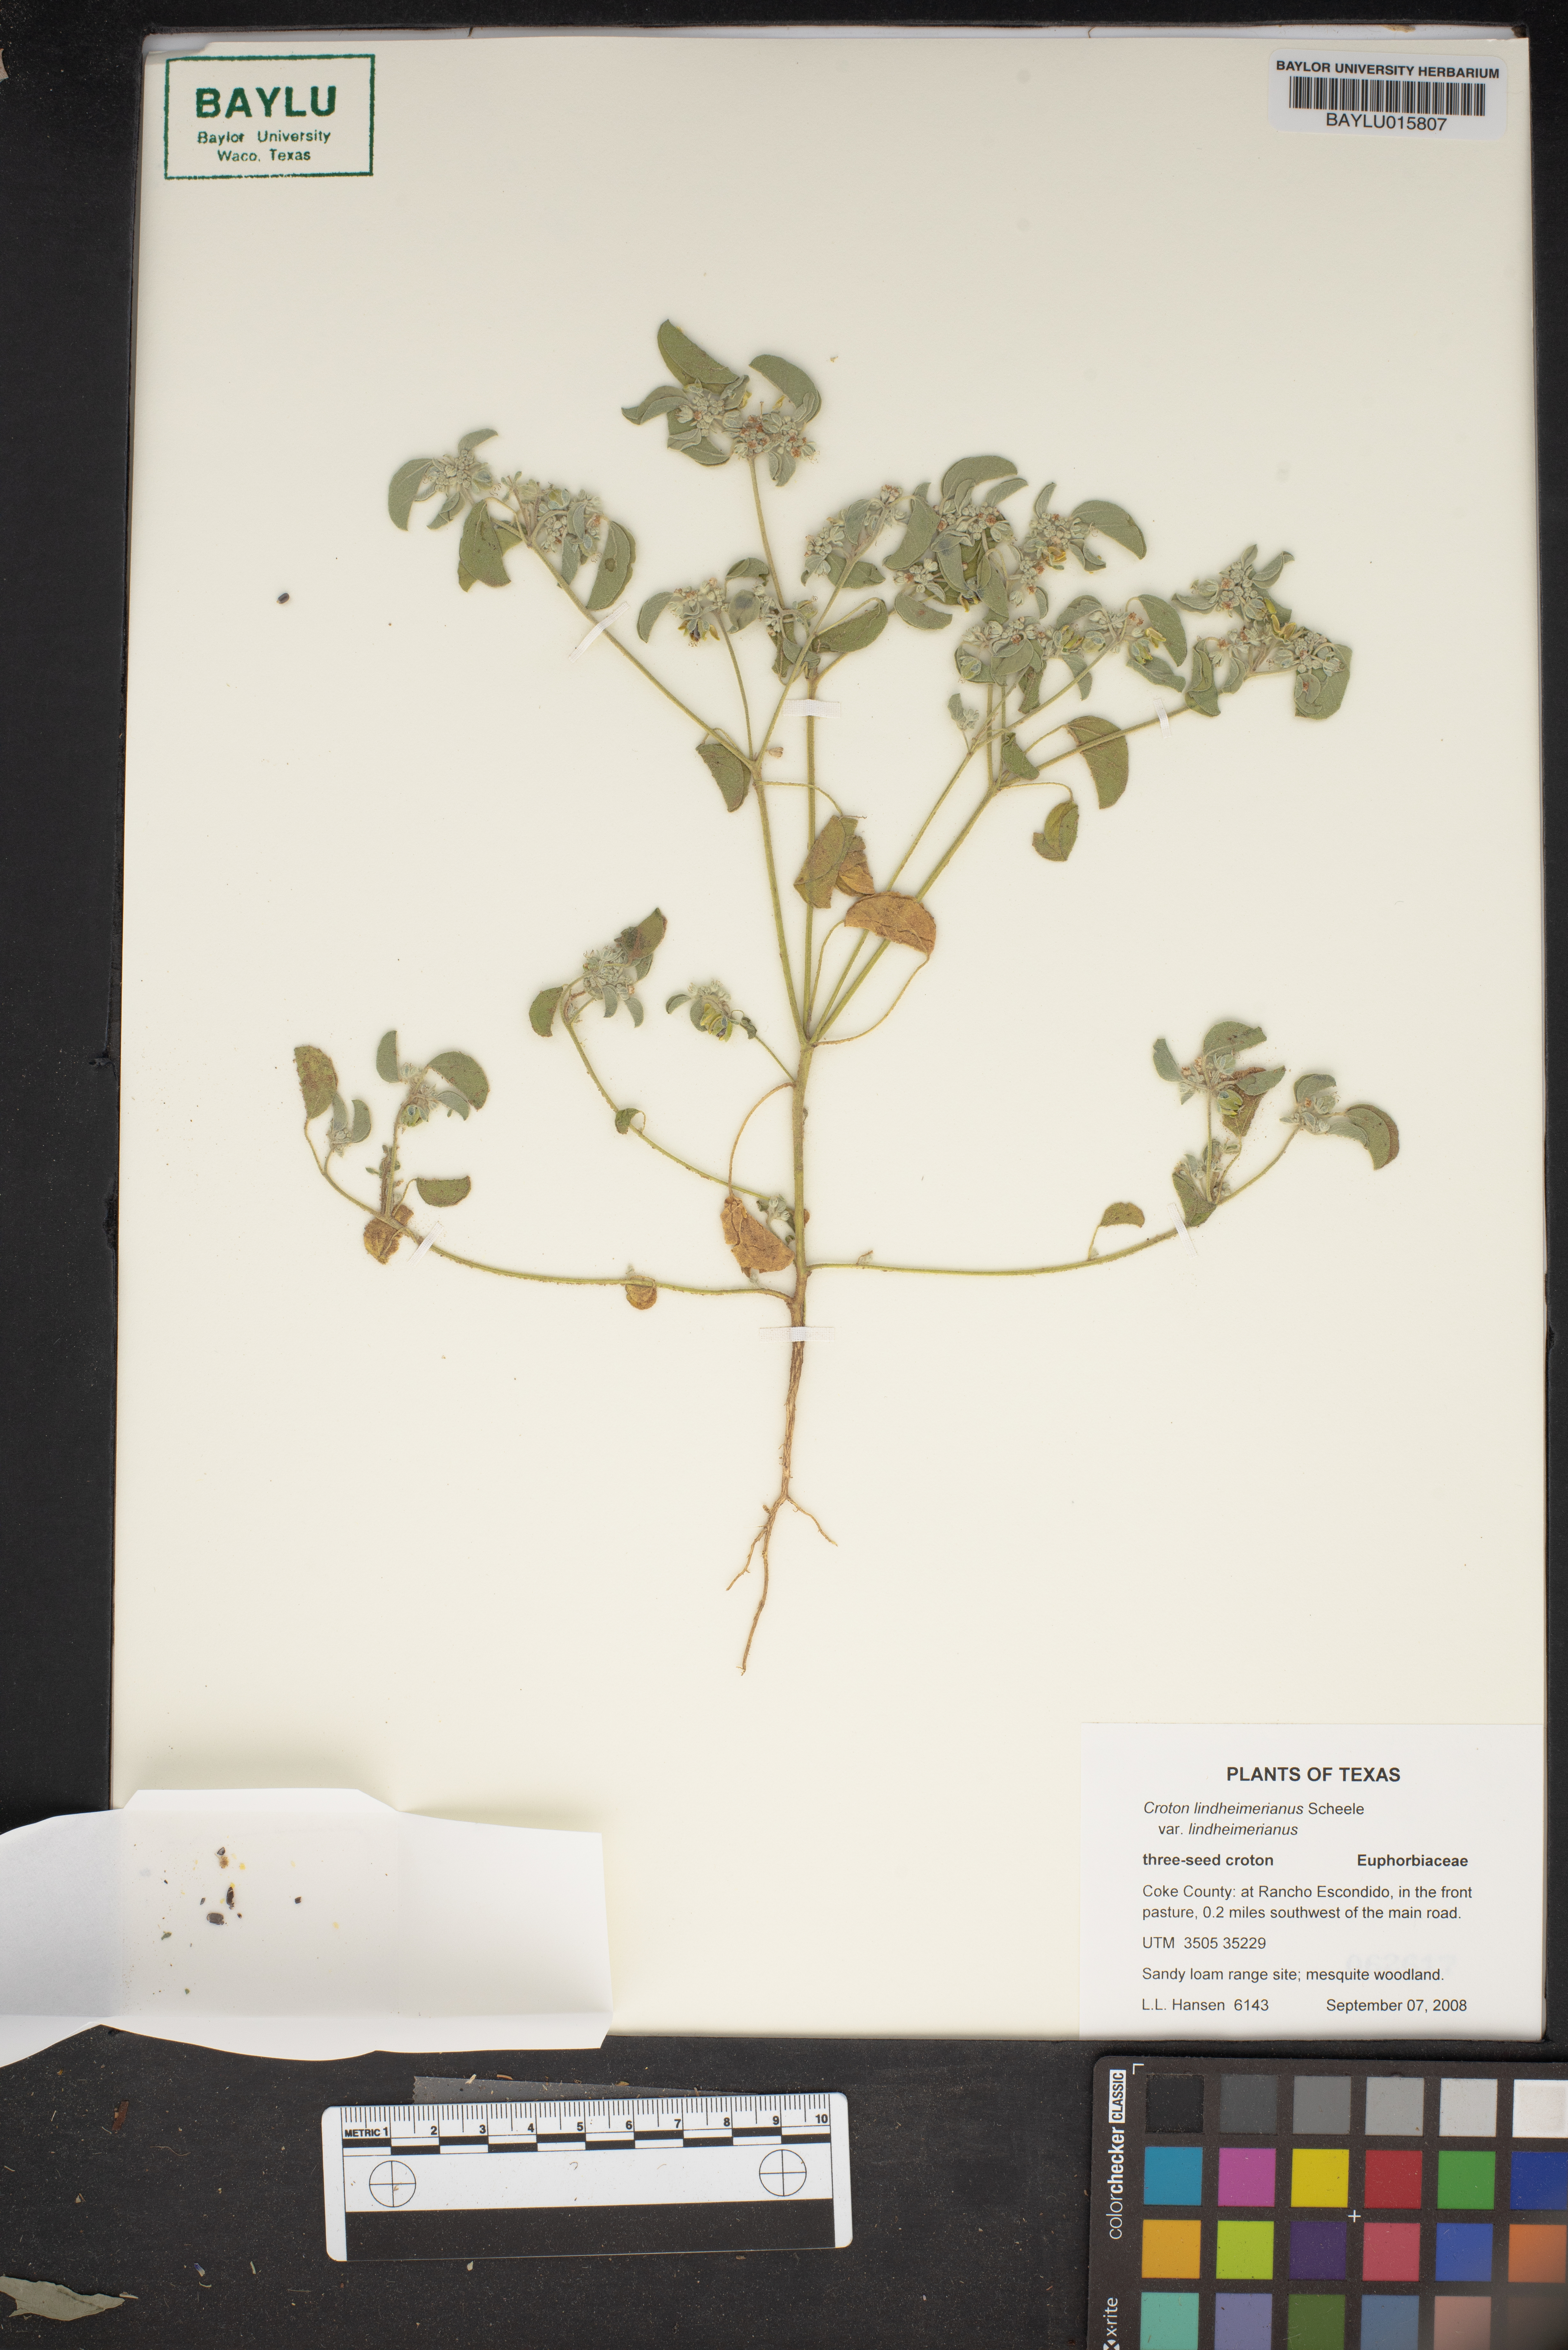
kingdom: Plantae
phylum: Tracheophyta
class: Magnoliopsida
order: Malpighiales
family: Euphorbiaceae
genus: Croton
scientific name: Croton lindheimerianus
